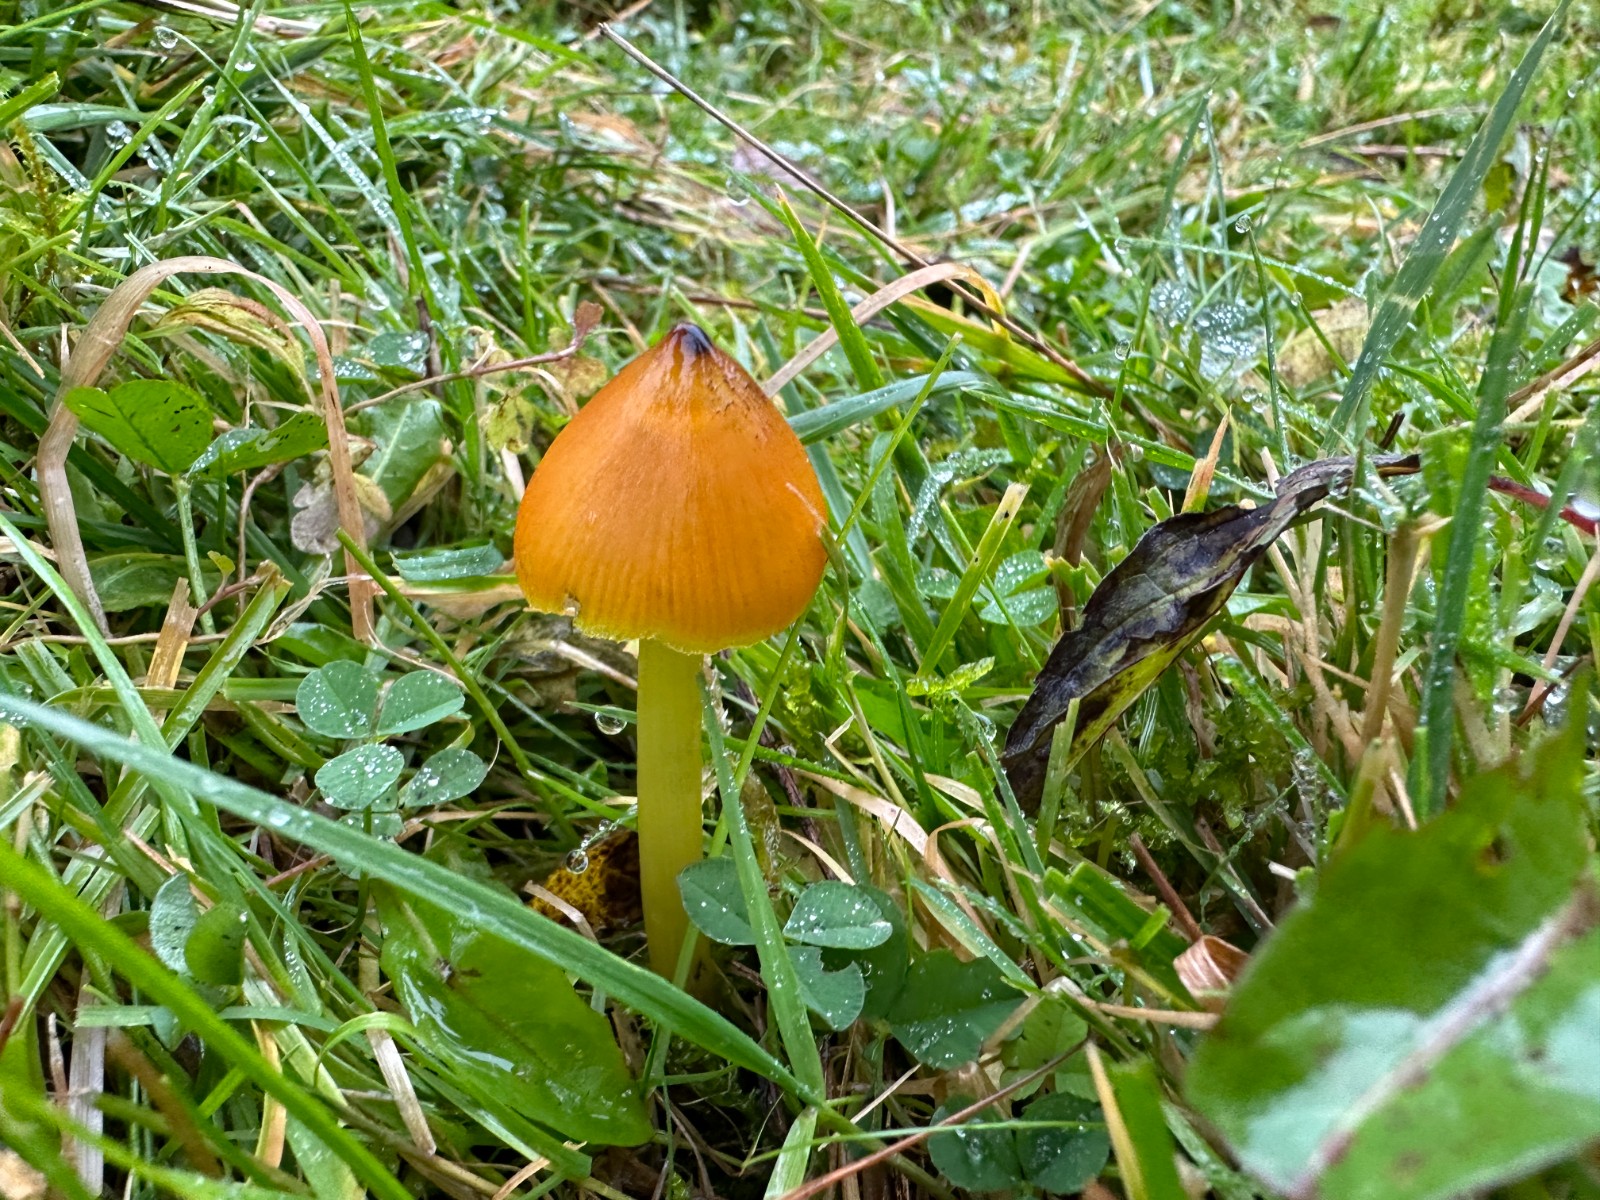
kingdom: Fungi
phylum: Basidiomycota
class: Agaricomycetes
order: Agaricales
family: Hygrophoraceae
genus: Hygrocybe
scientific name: Hygrocybe conica
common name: kegle-vokshat
